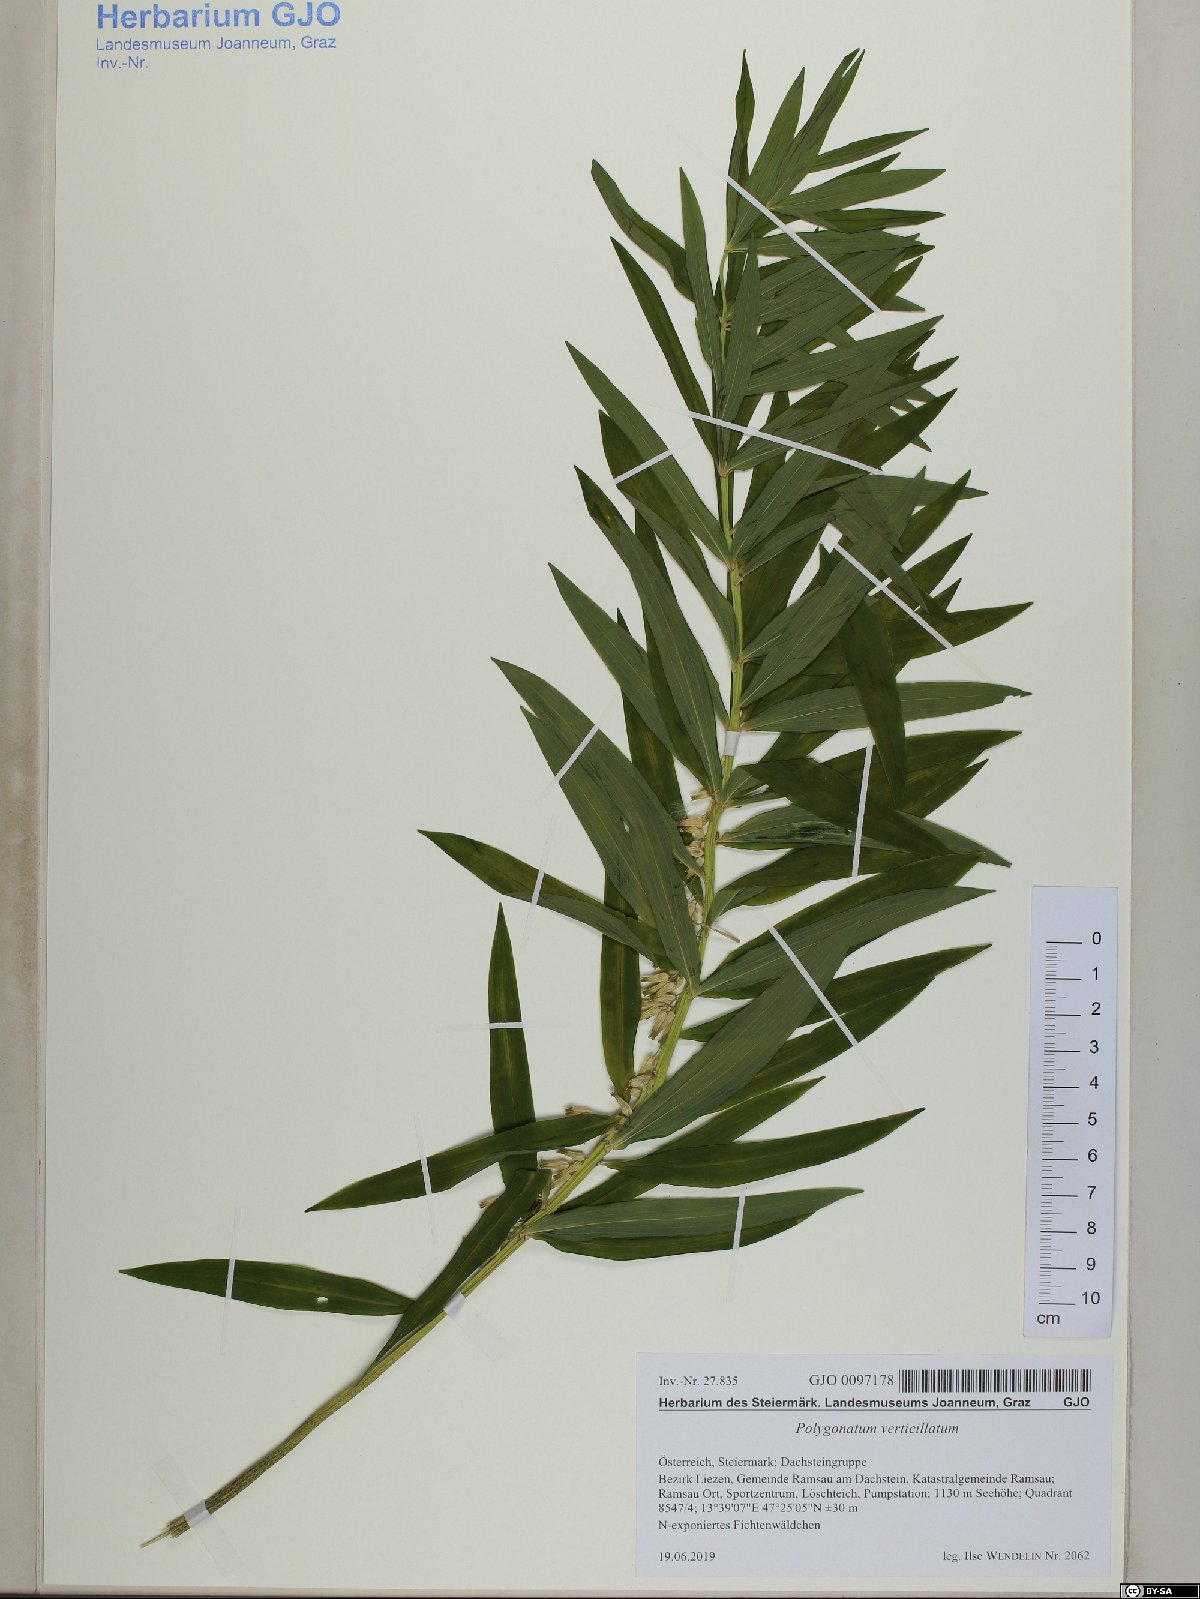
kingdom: Plantae
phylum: Tracheophyta
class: Liliopsida
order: Asparagales
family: Asparagaceae
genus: Polygonatum
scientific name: Polygonatum verticillatum
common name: Whorled solomon's-seal
